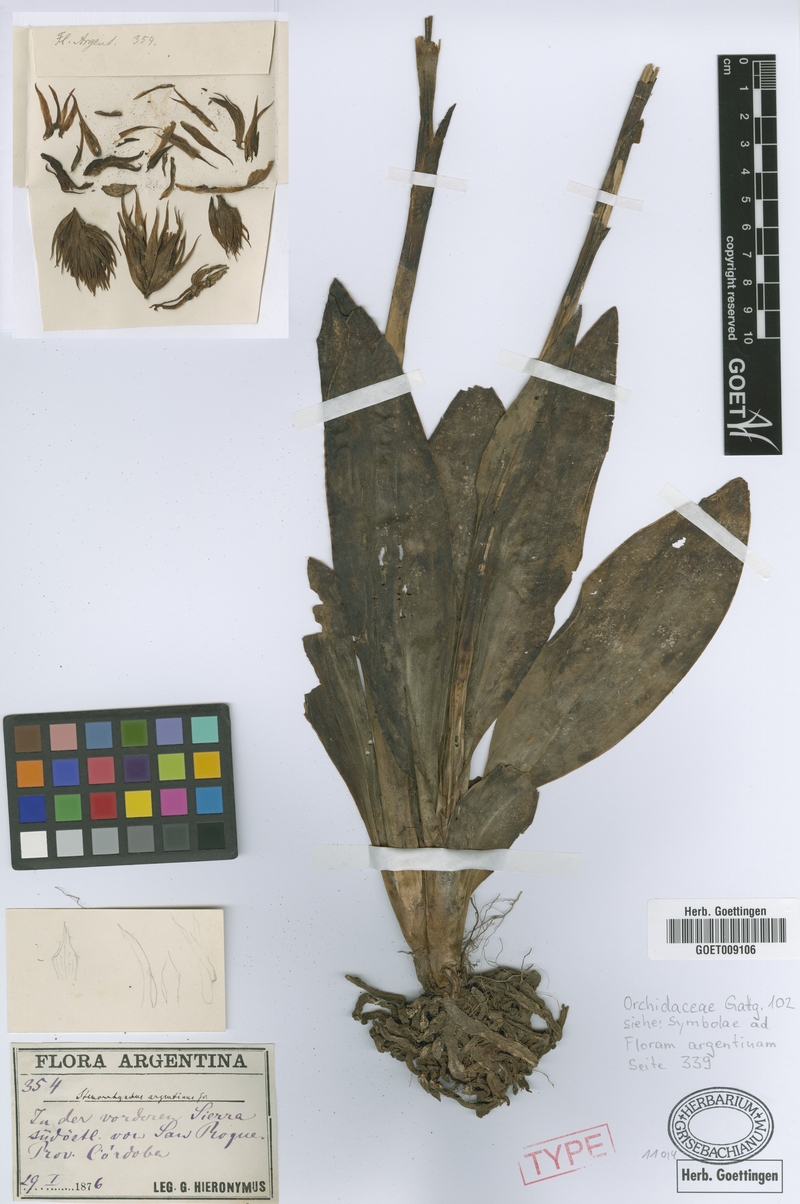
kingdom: Plantae
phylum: Tracheophyta
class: Liliopsida
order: Asparagales
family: Orchidaceae
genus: Sacoila
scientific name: Sacoila argentina
